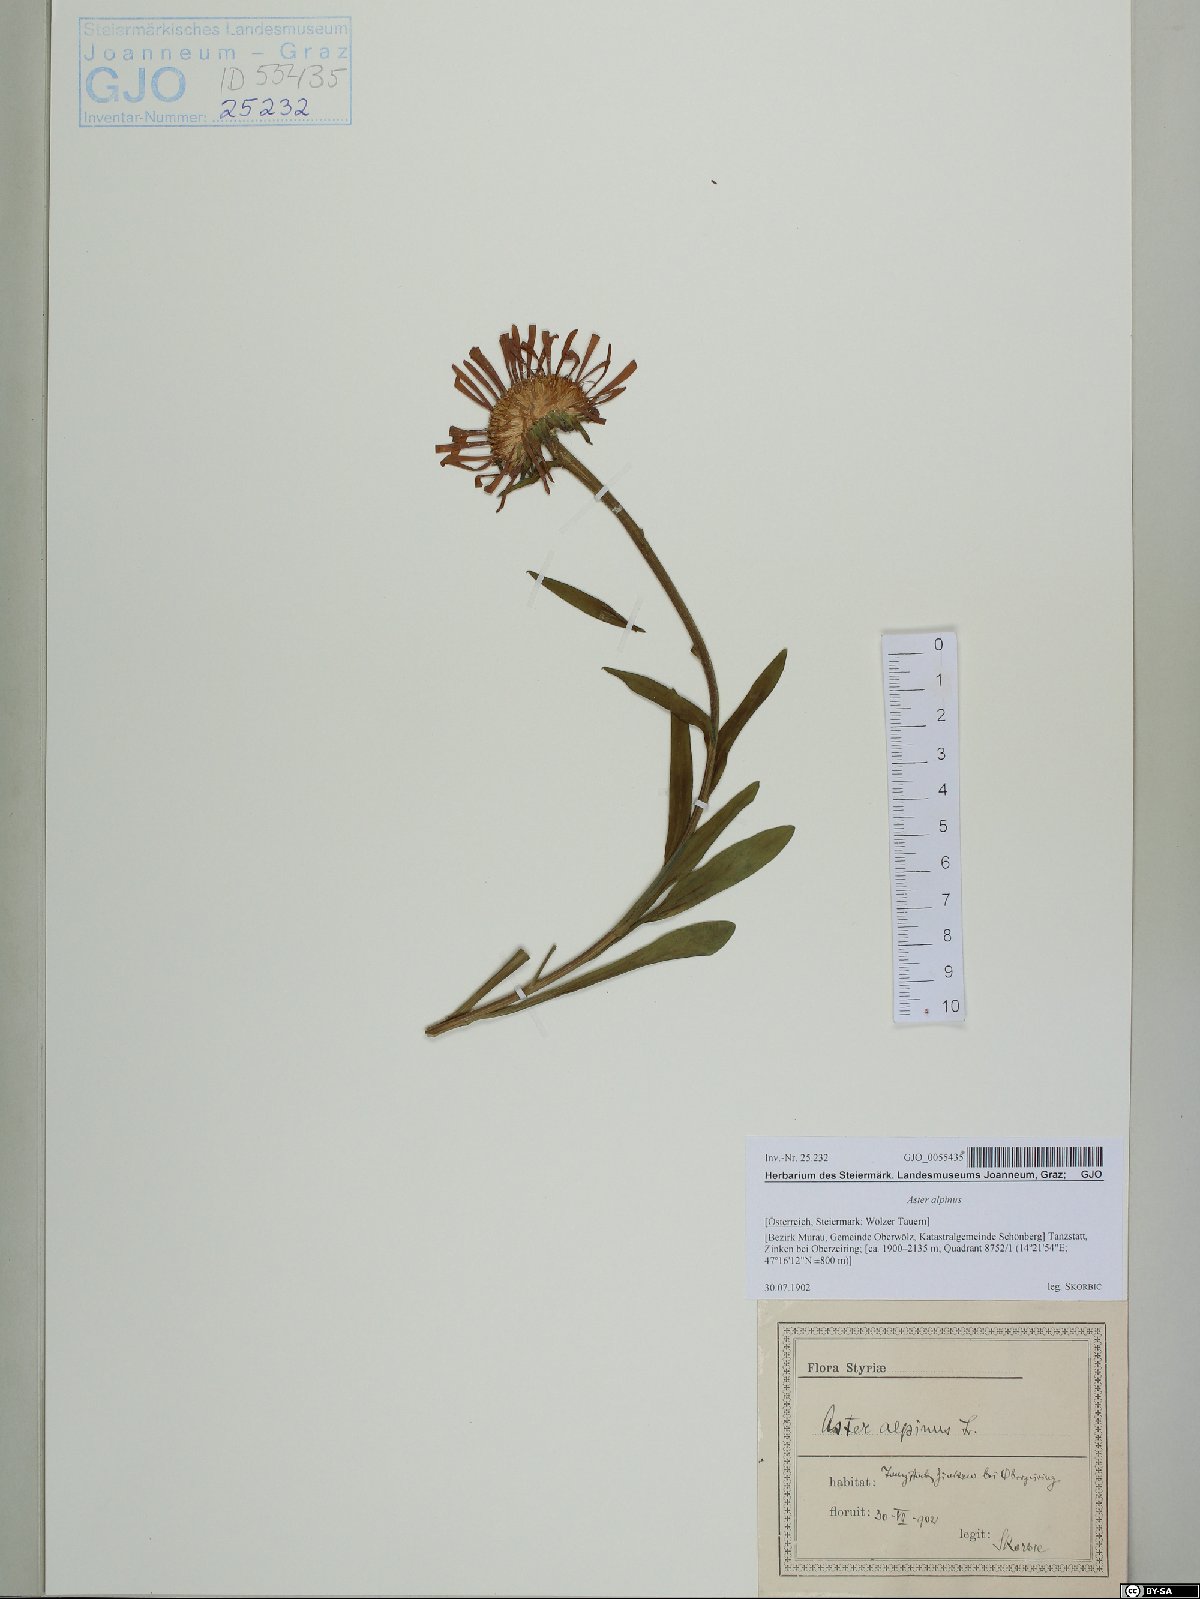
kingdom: Plantae
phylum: Tracheophyta
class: Magnoliopsida
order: Asterales
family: Asteraceae
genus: Aster
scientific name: Aster alpinus
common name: Alpine aster
